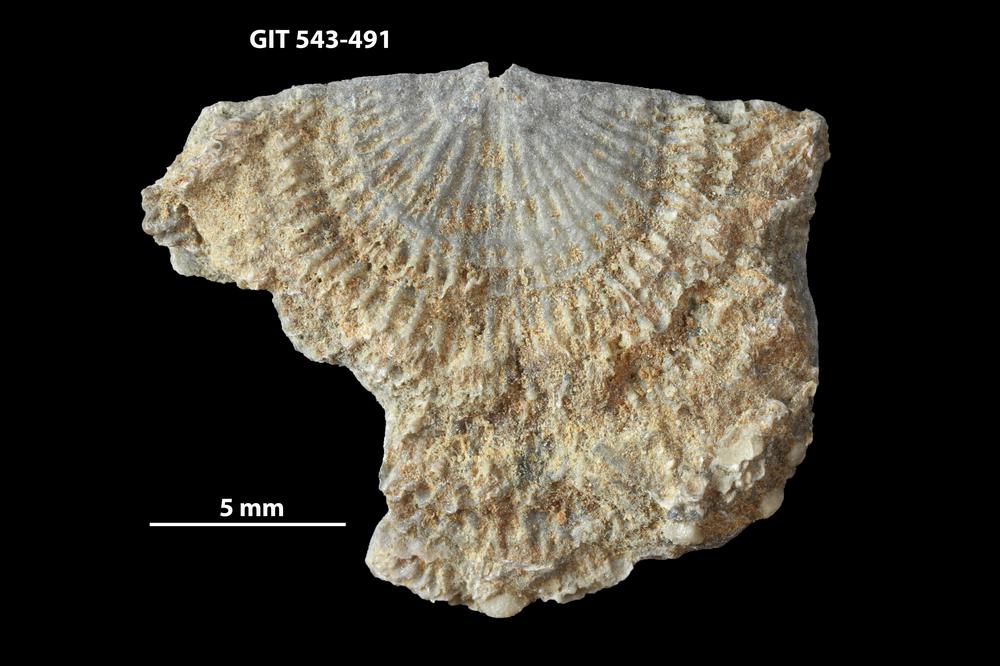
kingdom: Animalia
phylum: Brachiopoda
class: Rhynchonellata
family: Clitambonitidae
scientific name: Clitambonitidae
